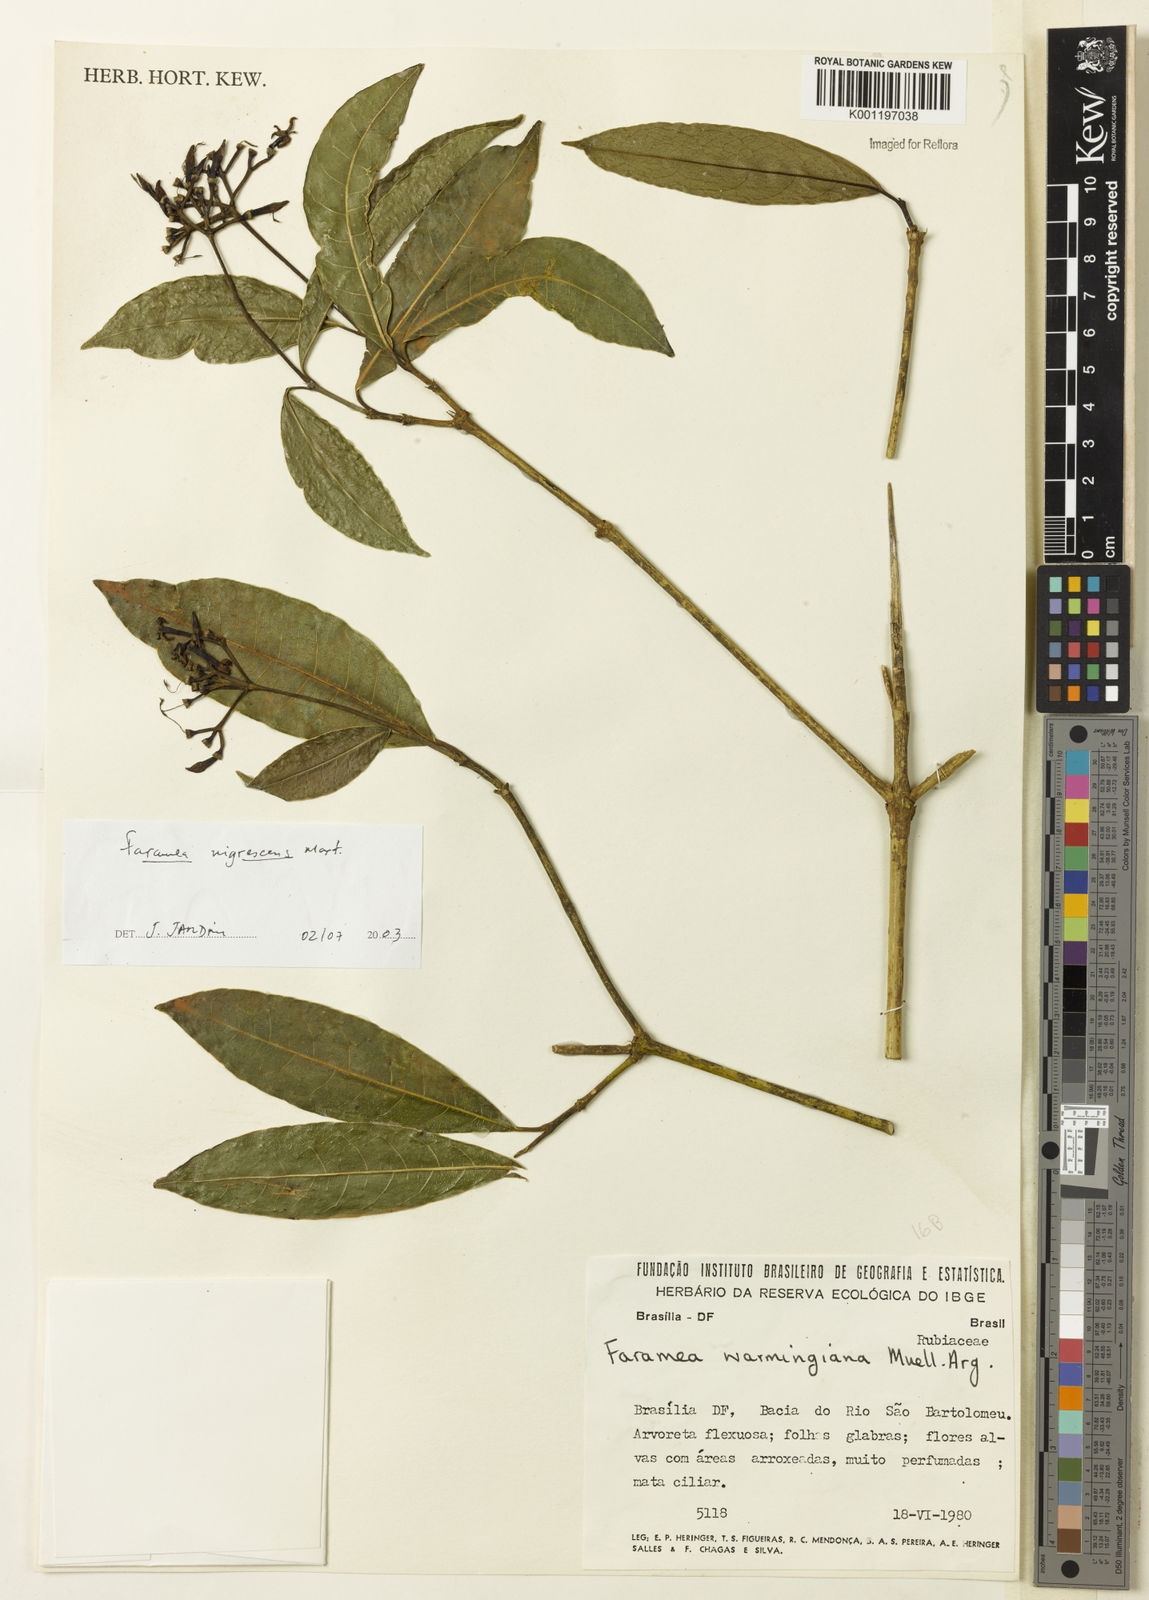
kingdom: Plantae
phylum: Tracheophyta
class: Magnoliopsida
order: Gentianales
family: Rubiaceae
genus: Faramea
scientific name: Faramea nigrescens
